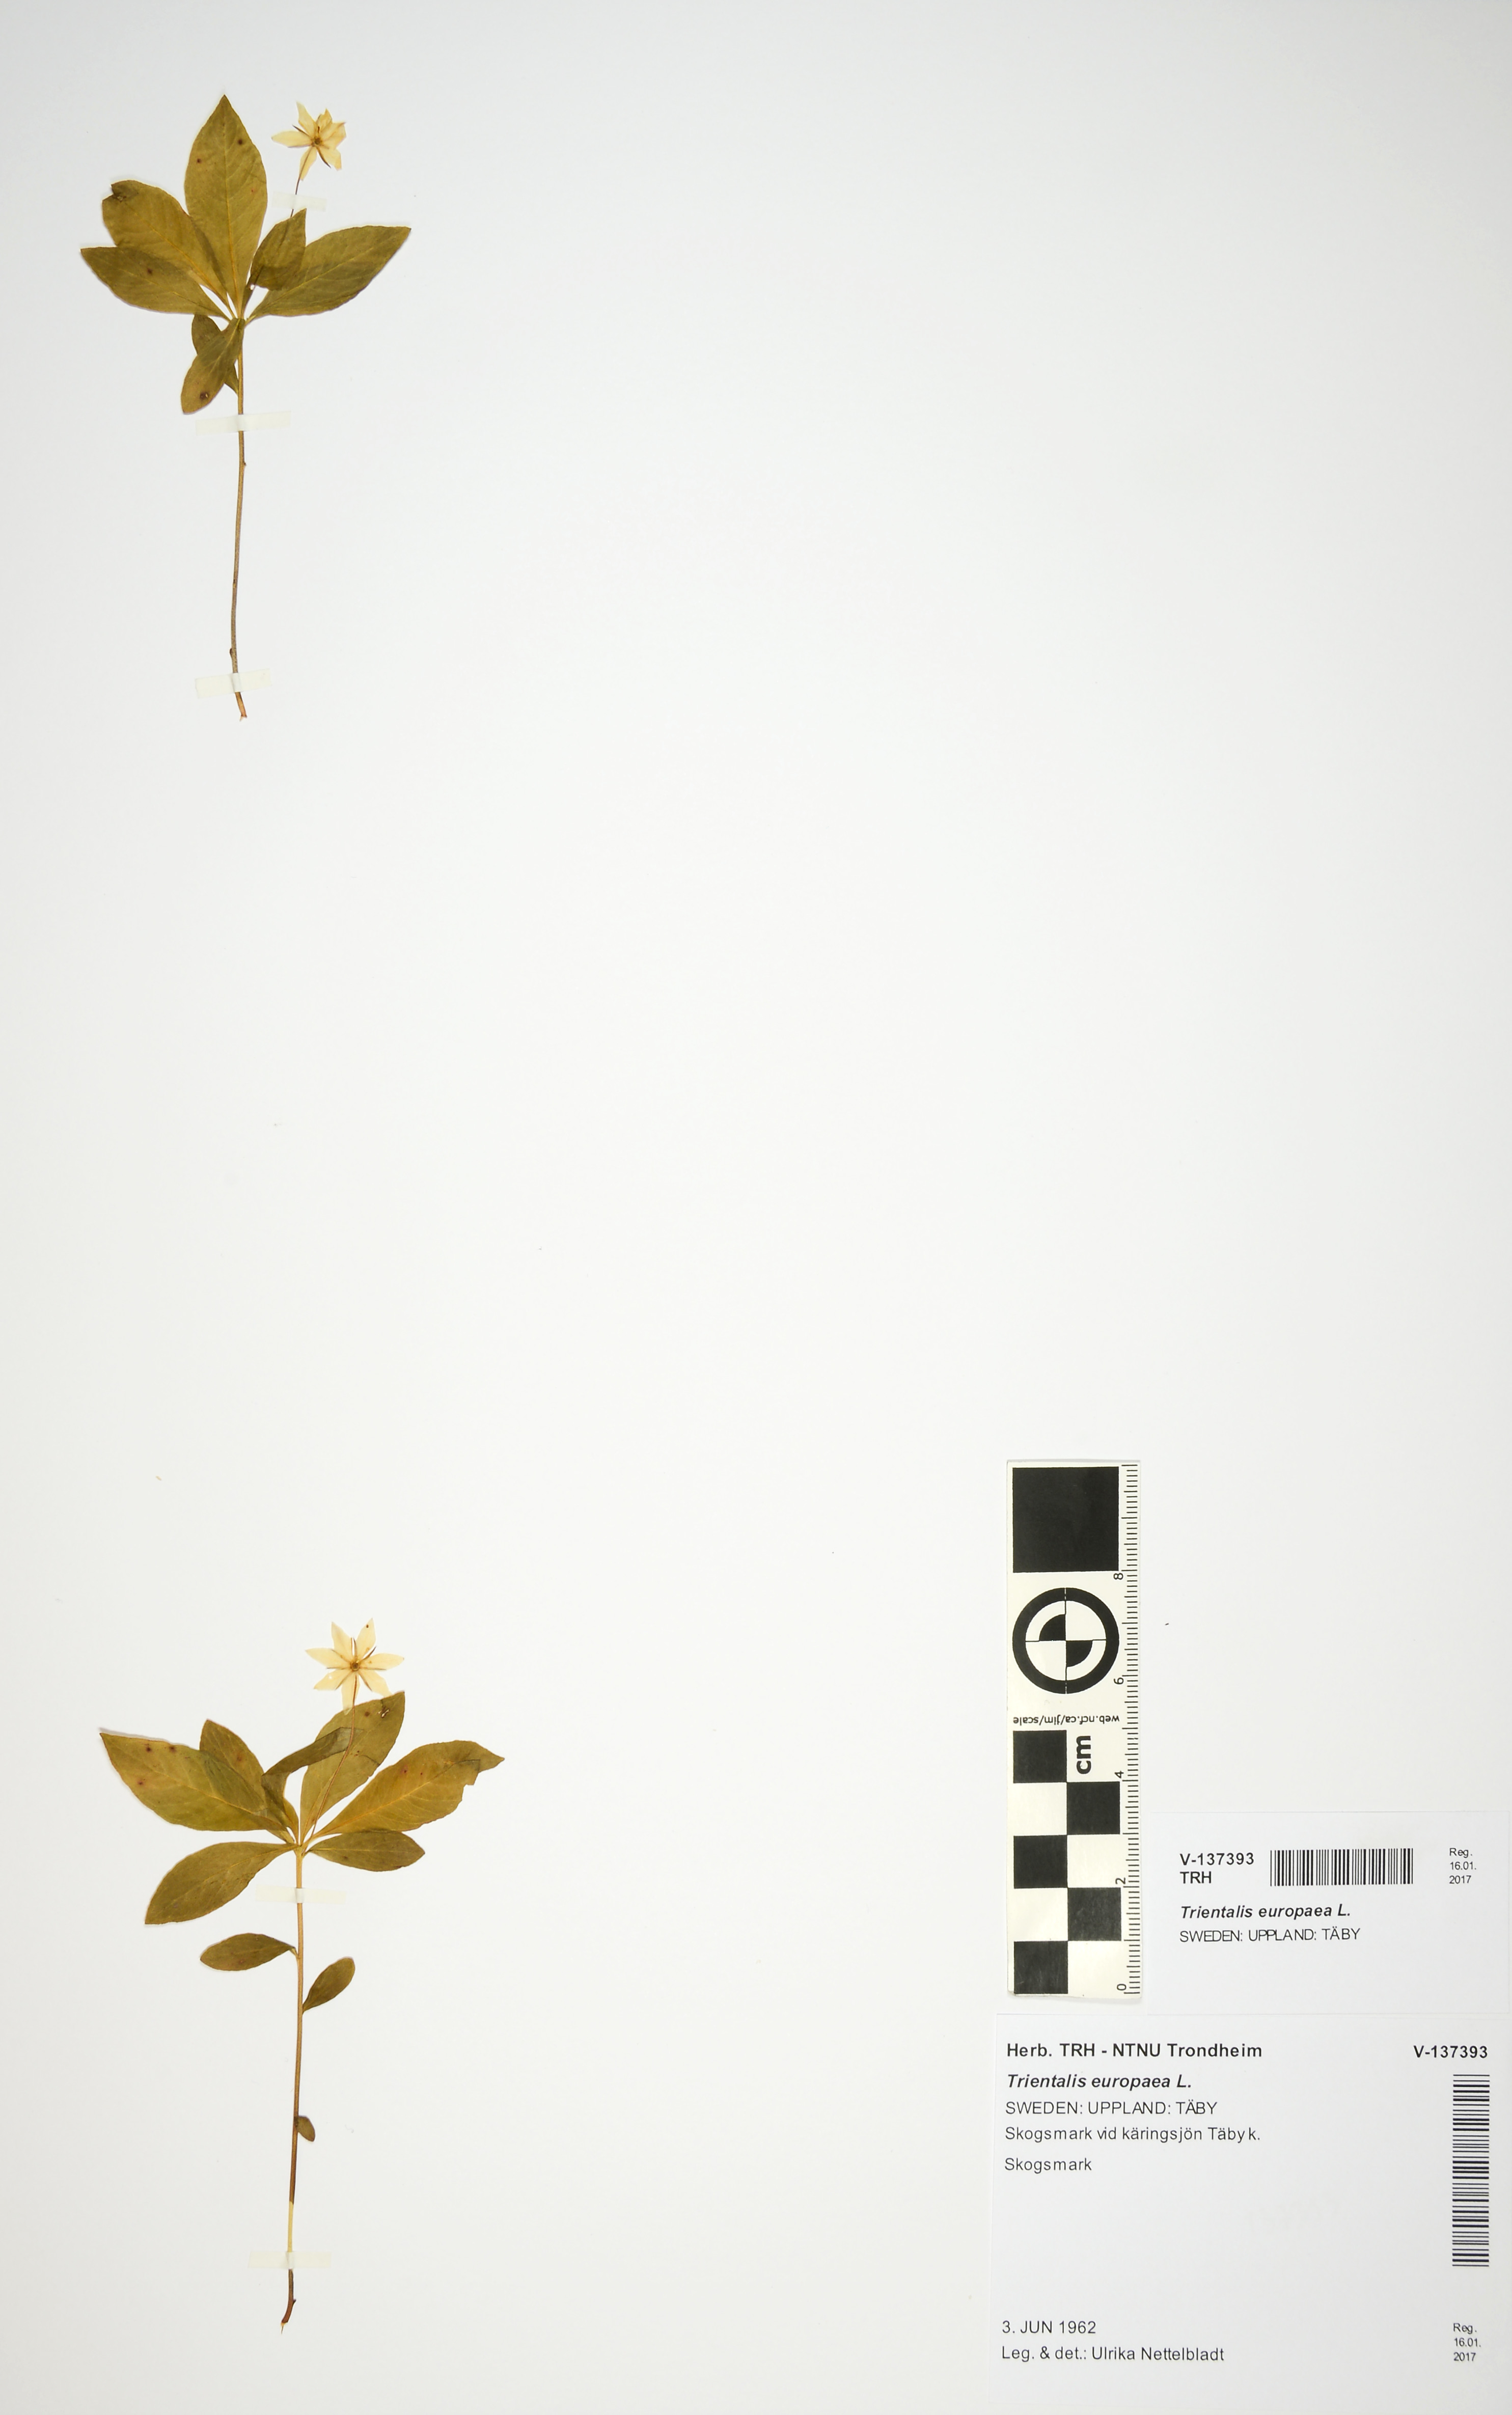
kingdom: Plantae
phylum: Tracheophyta
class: Magnoliopsida
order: Ericales
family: Primulaceae
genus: Lysimachia
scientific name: Lysimachia europaea
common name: Arctic starflower
